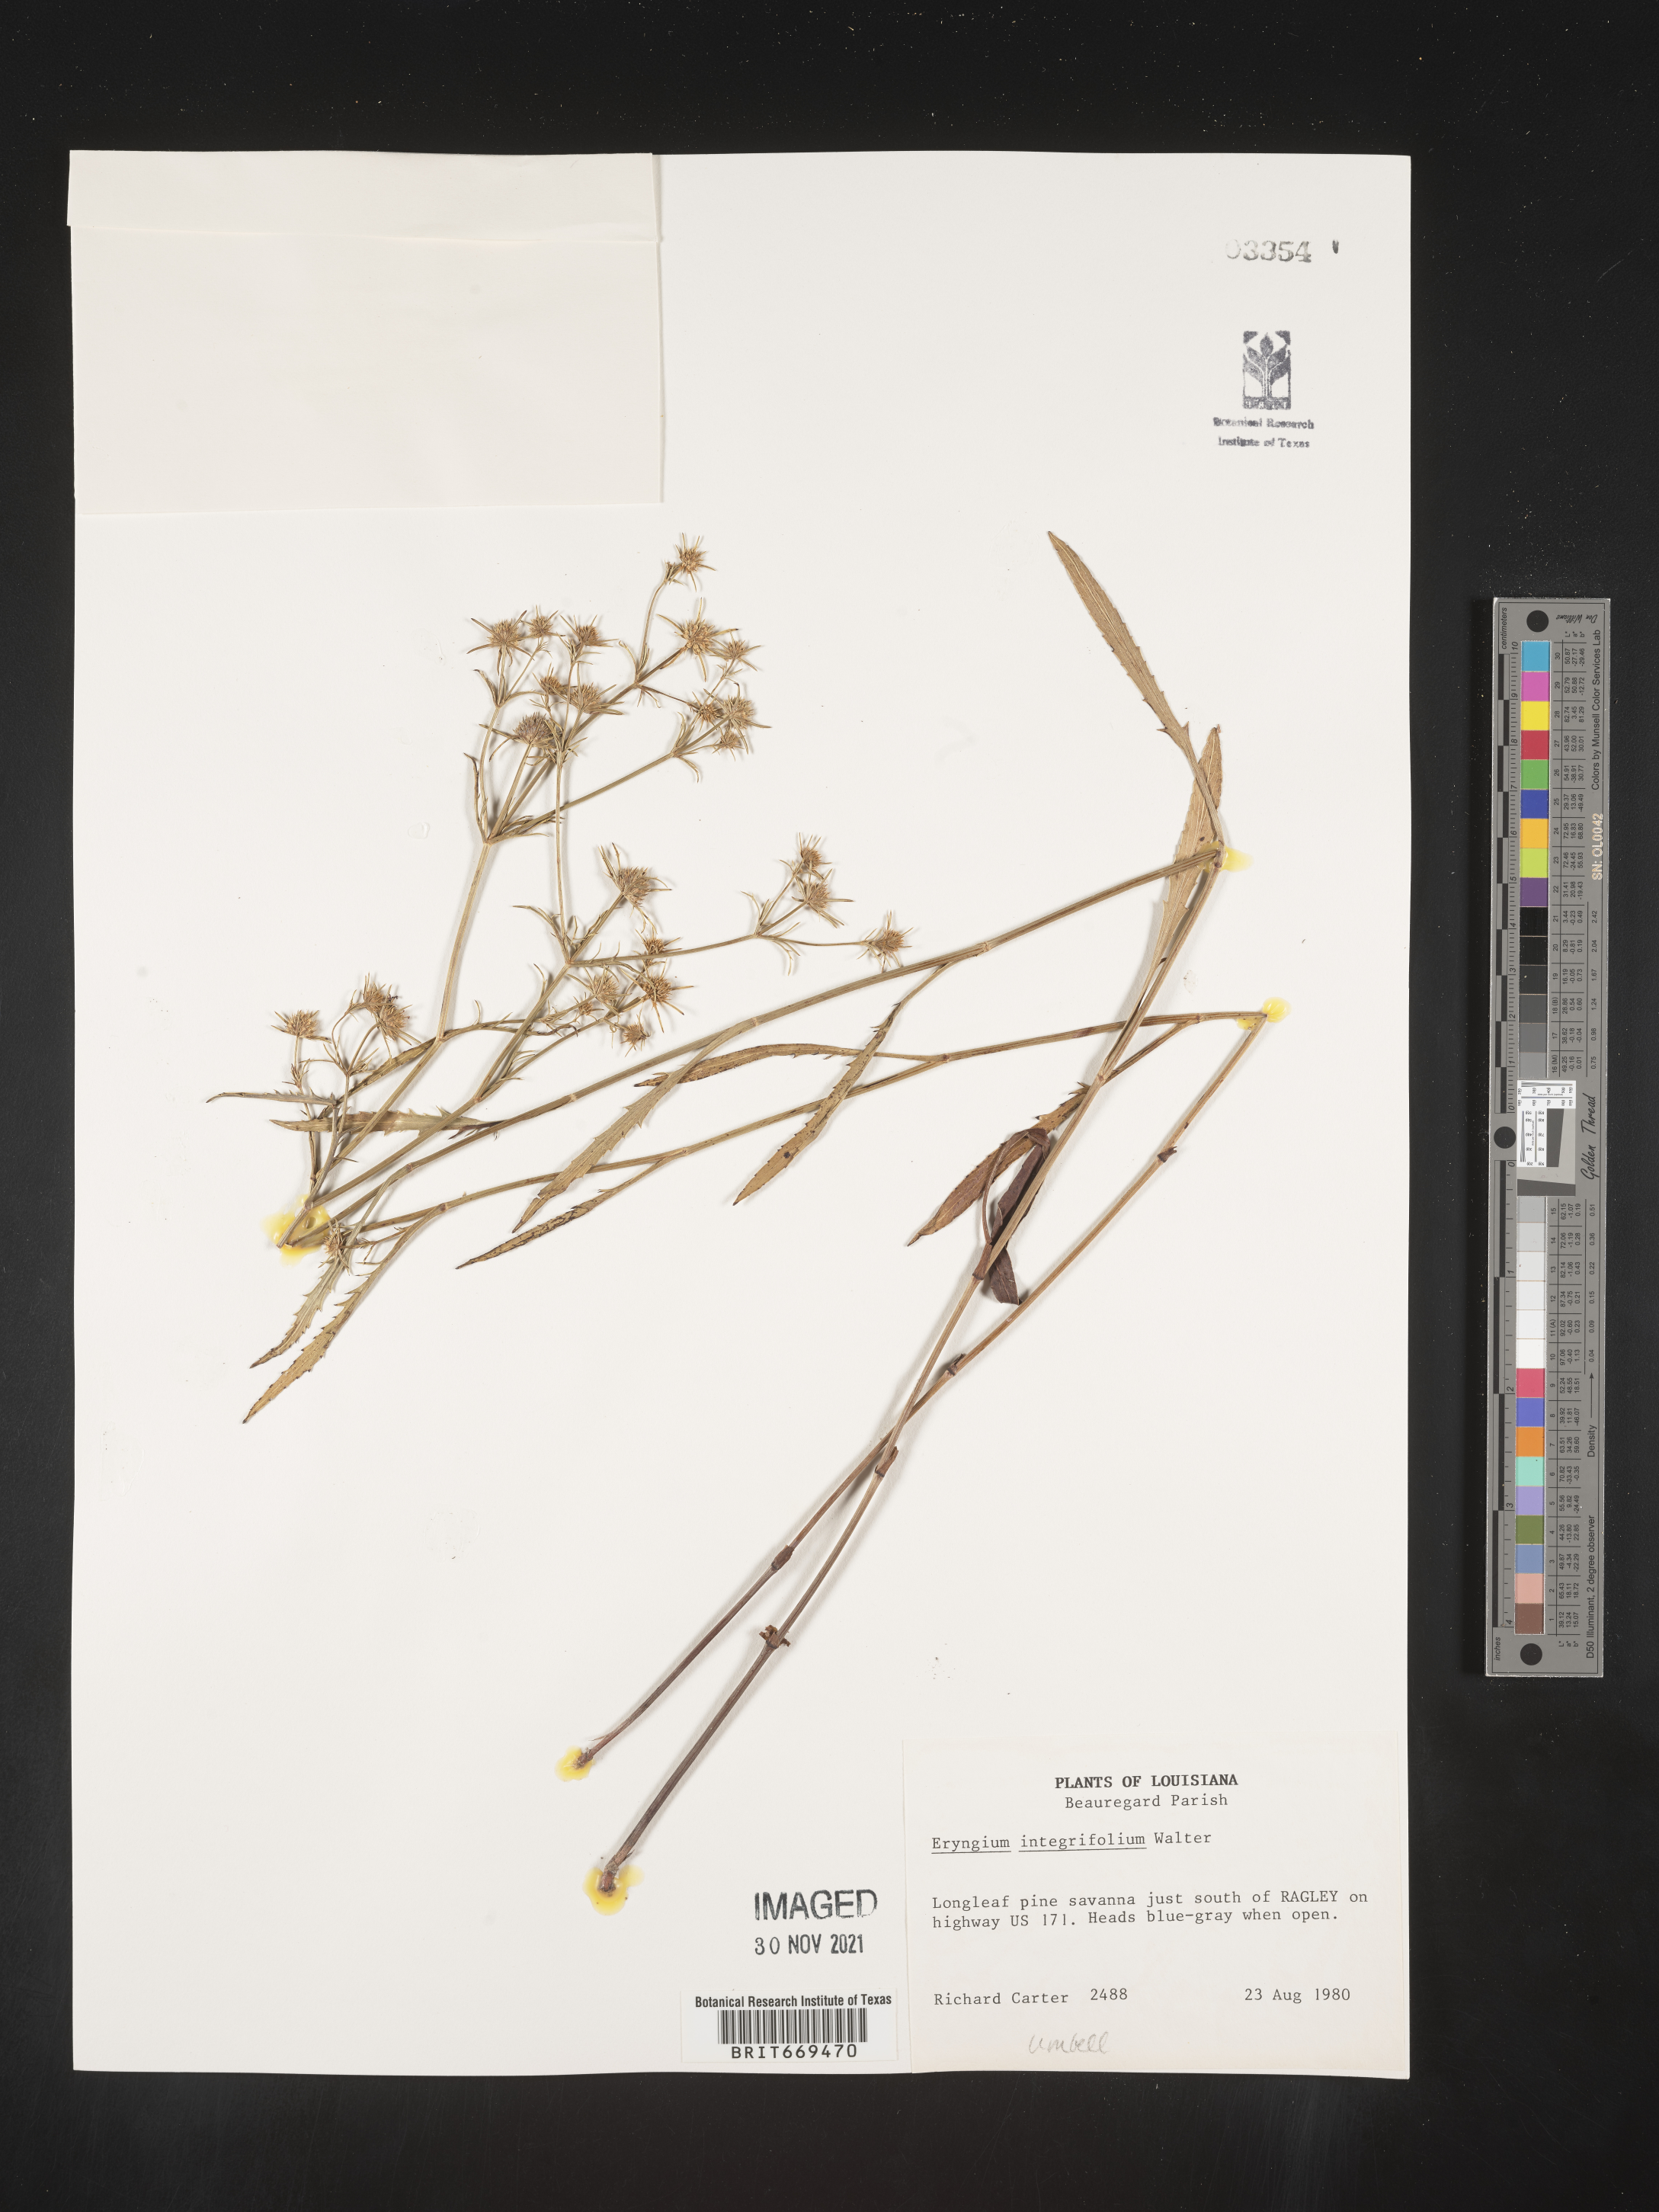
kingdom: Plantae
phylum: Tracheophyta
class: Magnoliopsida
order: Apiales
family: Apiaceae
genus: Eryngium
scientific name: Eryngium integrifolium
